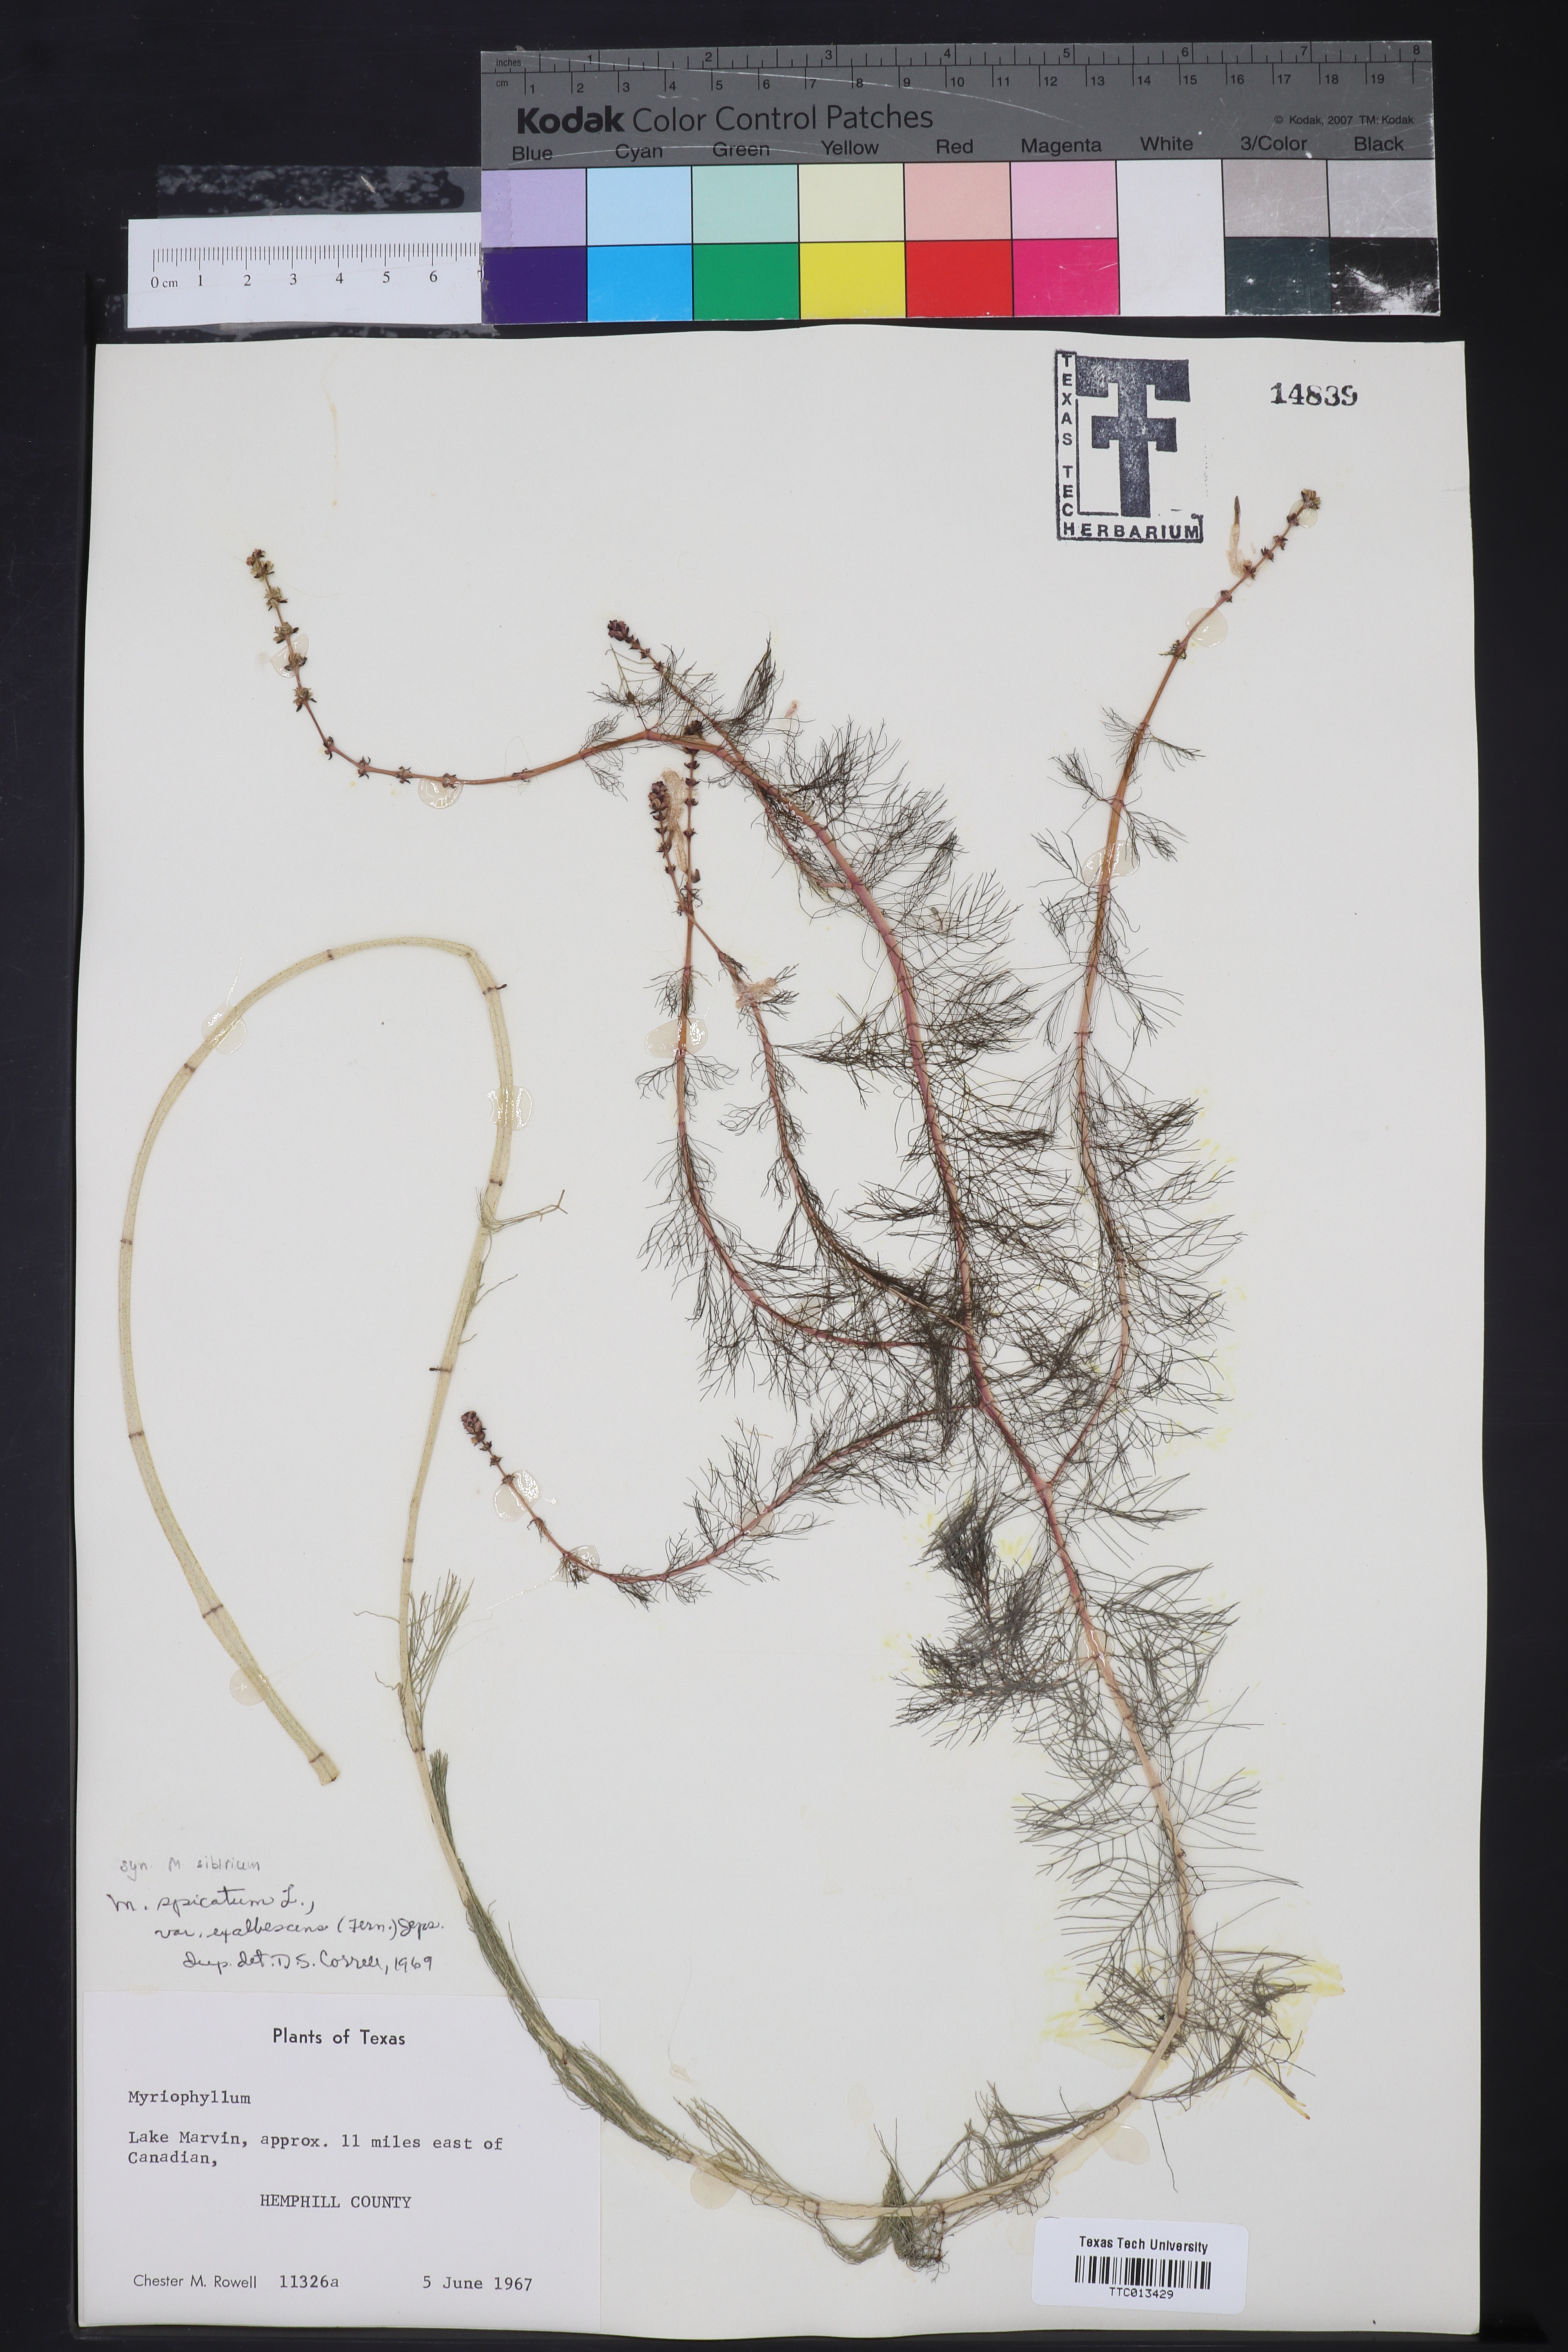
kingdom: Plantae
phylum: Tracheophyta
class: Magnoliopsida
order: Saxifragales
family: Haloragaceae
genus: Myriophyllum
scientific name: Myriophyllum sibiricum
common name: Siberian water-milfoil
